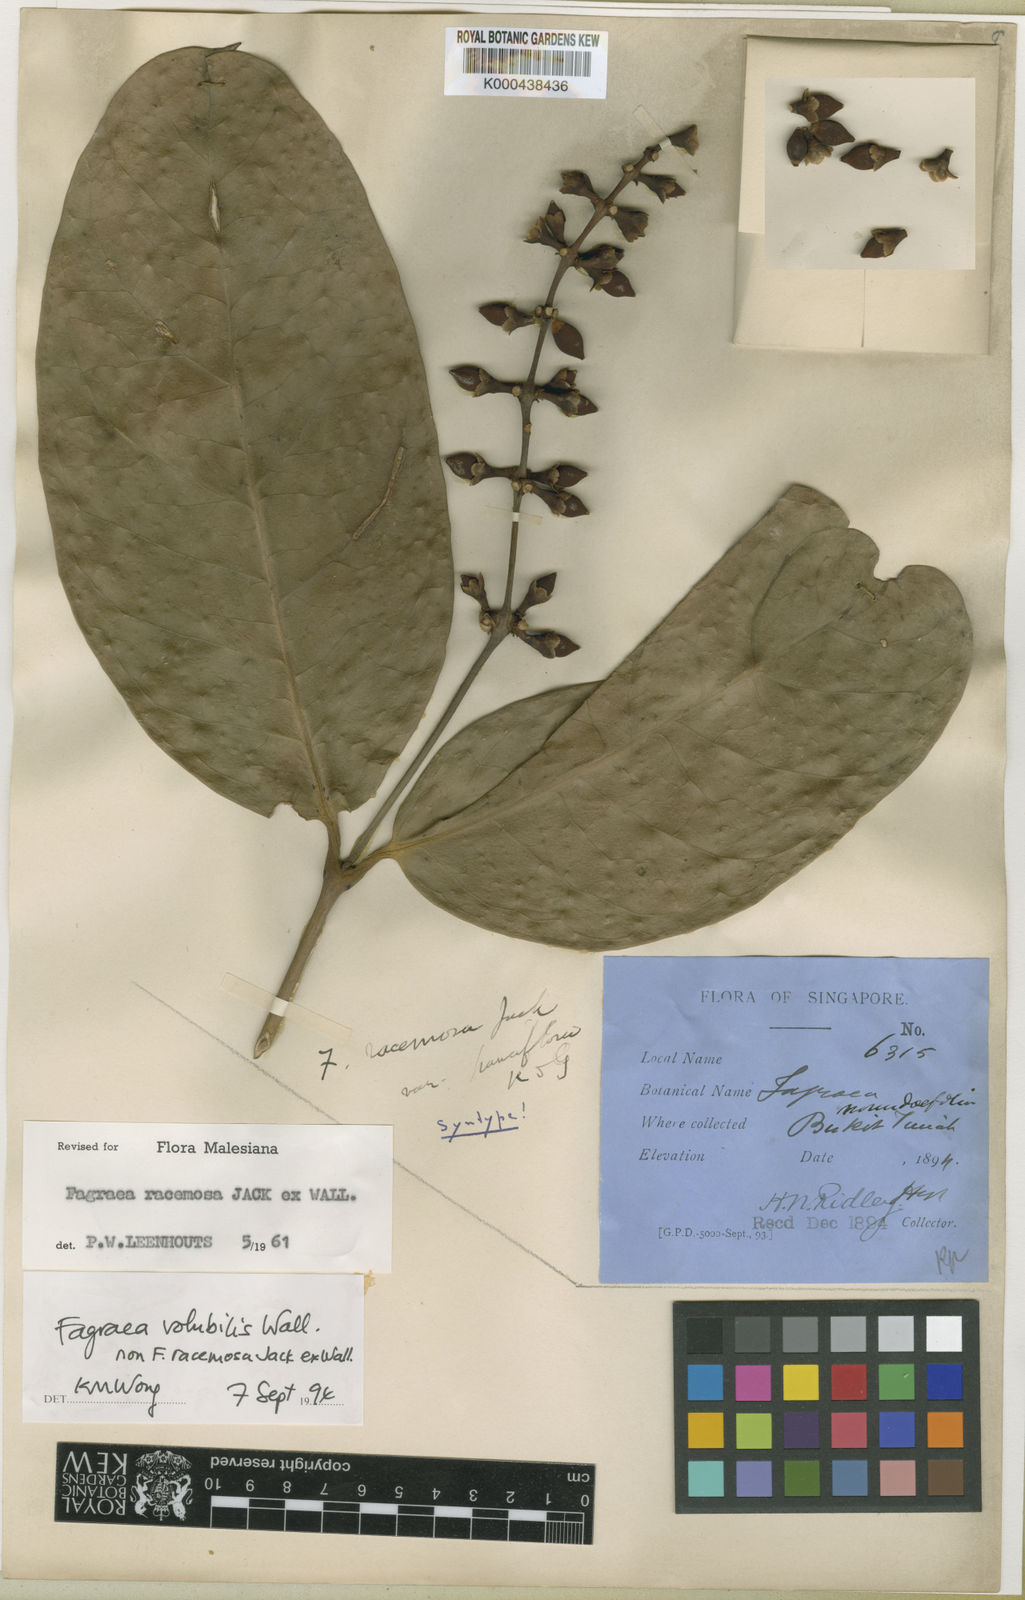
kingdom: Plantae
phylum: Tracheophyta
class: Magnoliopsida
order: Gentianales
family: Gentianaceae
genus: Utania
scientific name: Utania volubilis
